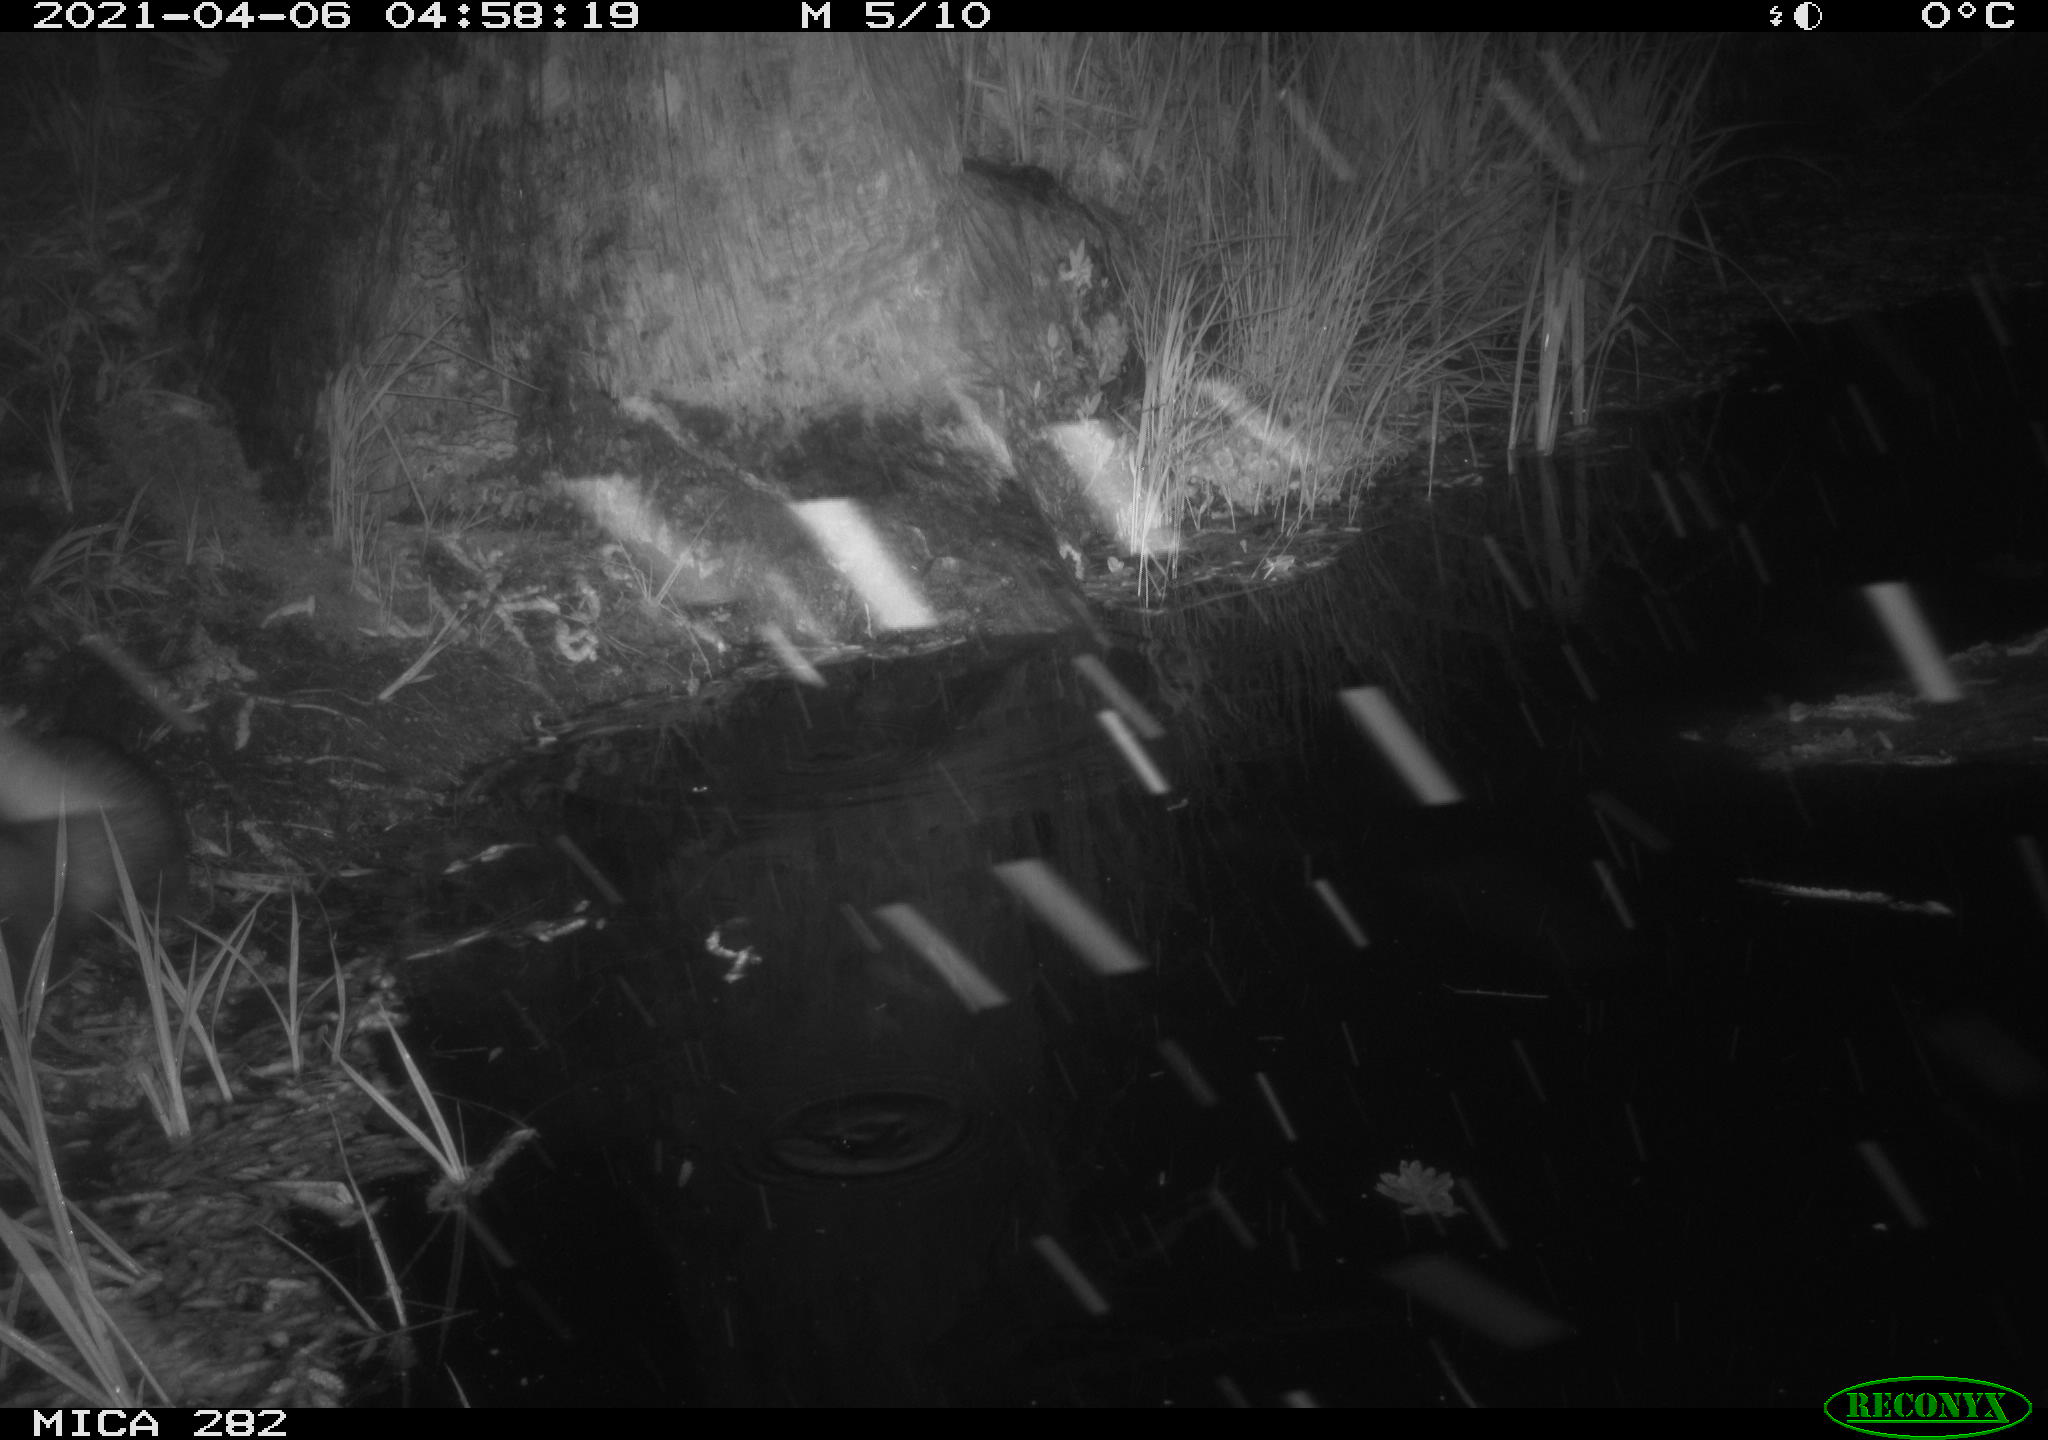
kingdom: Animalia
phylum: Chordata
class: Mammalia
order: Carnivora
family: Mustelidae
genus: Mustela
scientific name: Mustela putorius
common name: European polecat
